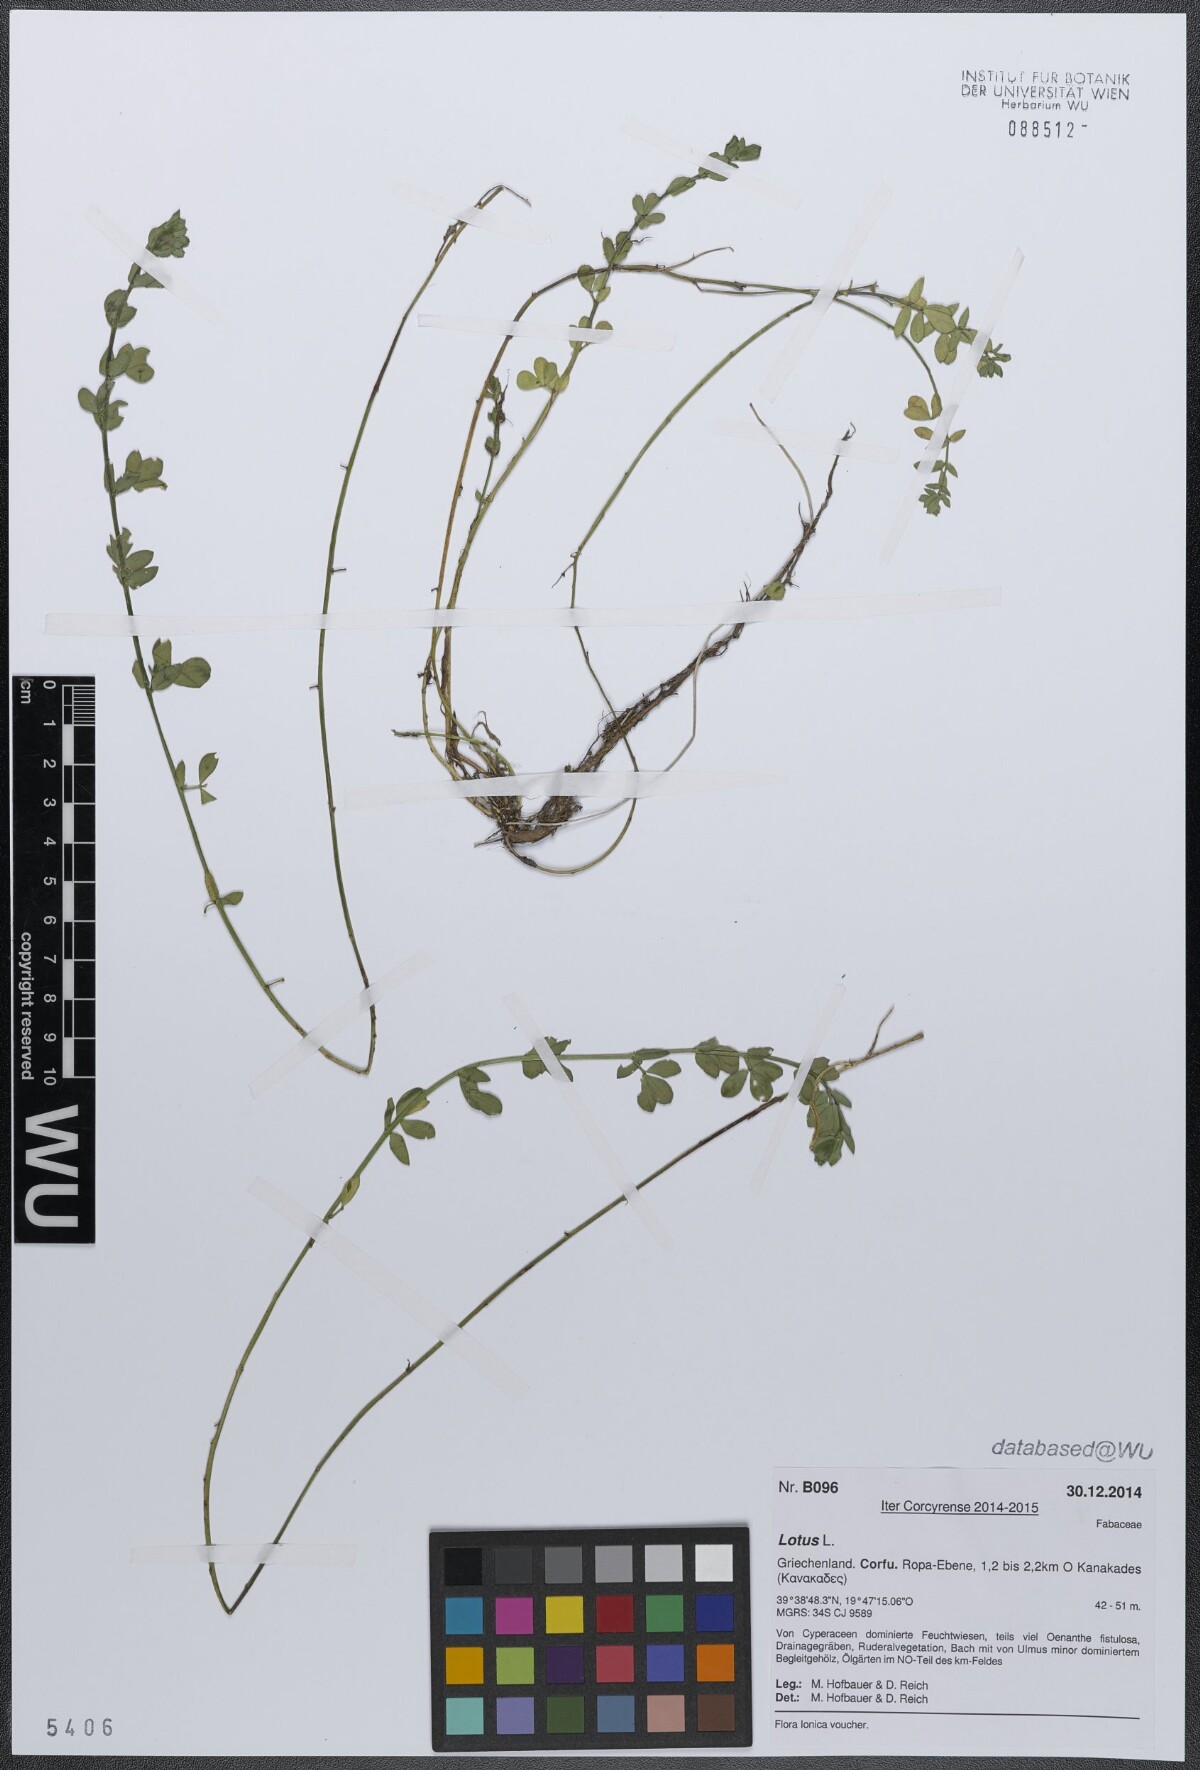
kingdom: Plantae
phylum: Tracheophyta
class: Magnoliopsida
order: Fabales
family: Fabaceae
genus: Lotus
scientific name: Lotus
